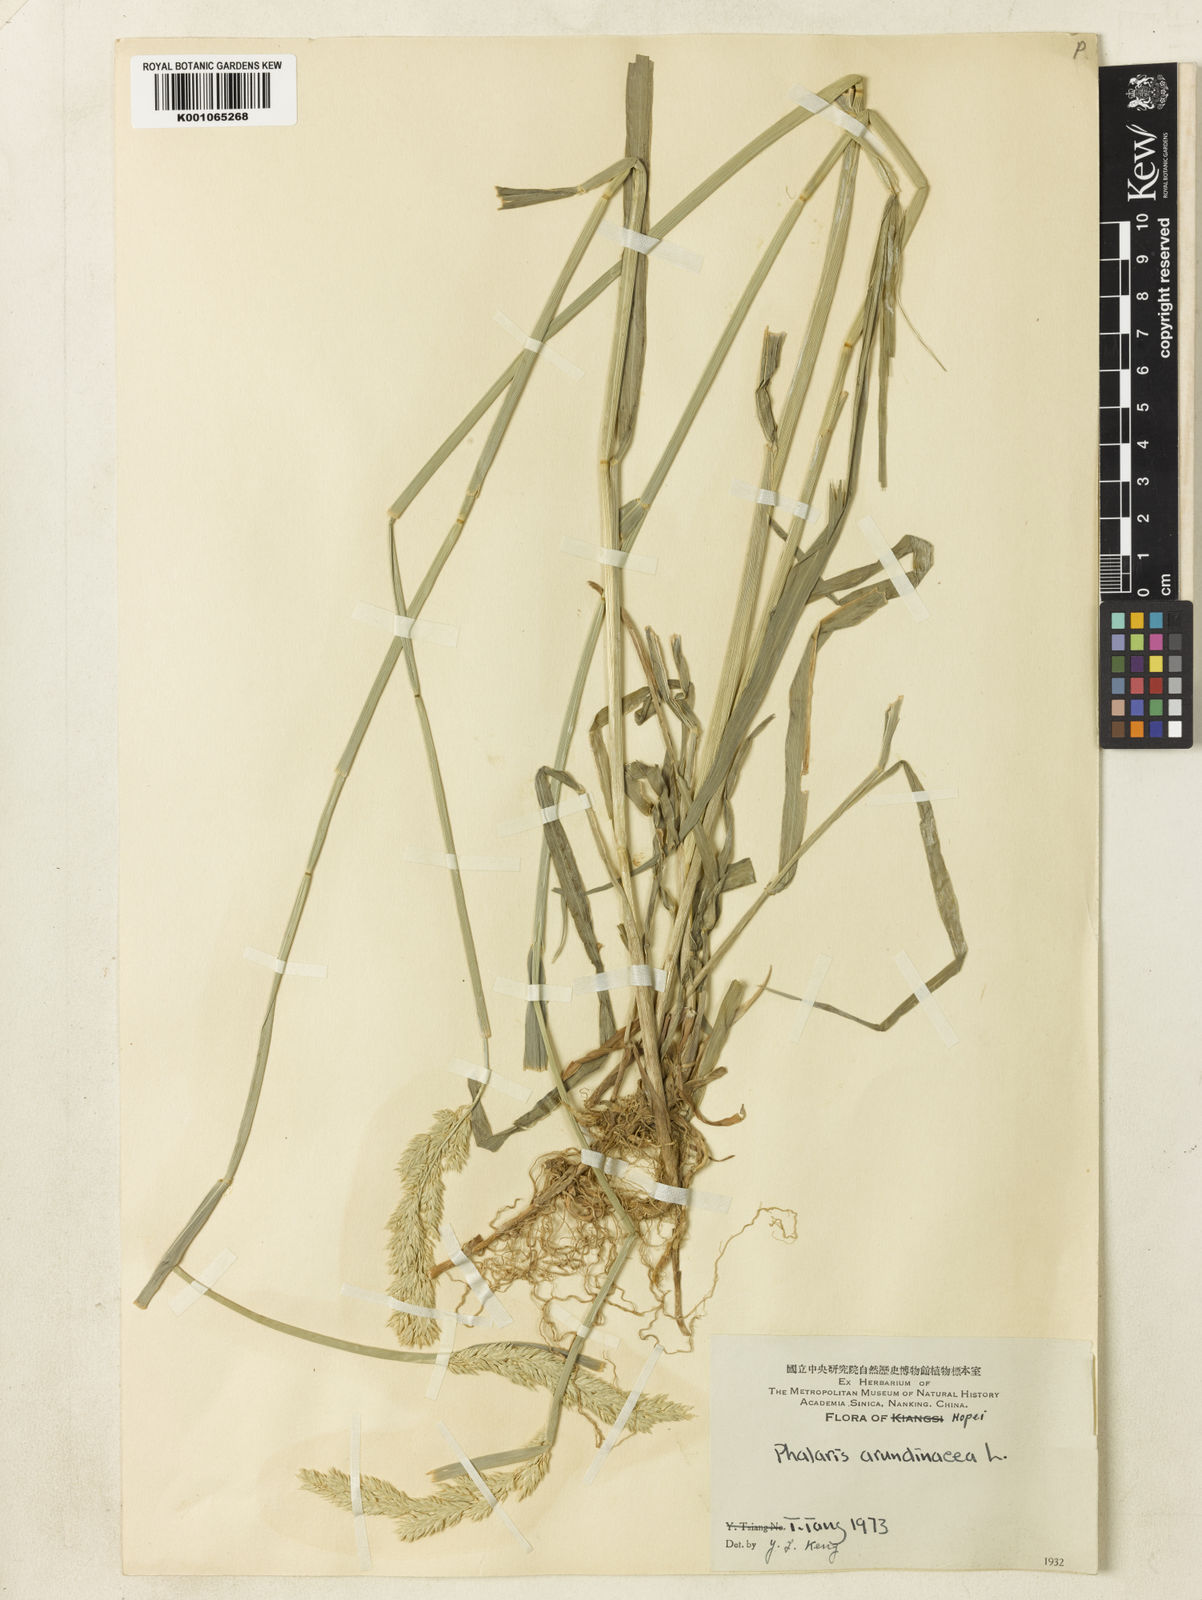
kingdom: Plantae
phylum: Tracheophyta
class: Liliopsida
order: Poales
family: Poaceae
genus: Phalaris
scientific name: Phalaris arundinacea
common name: Reed canary-grass
